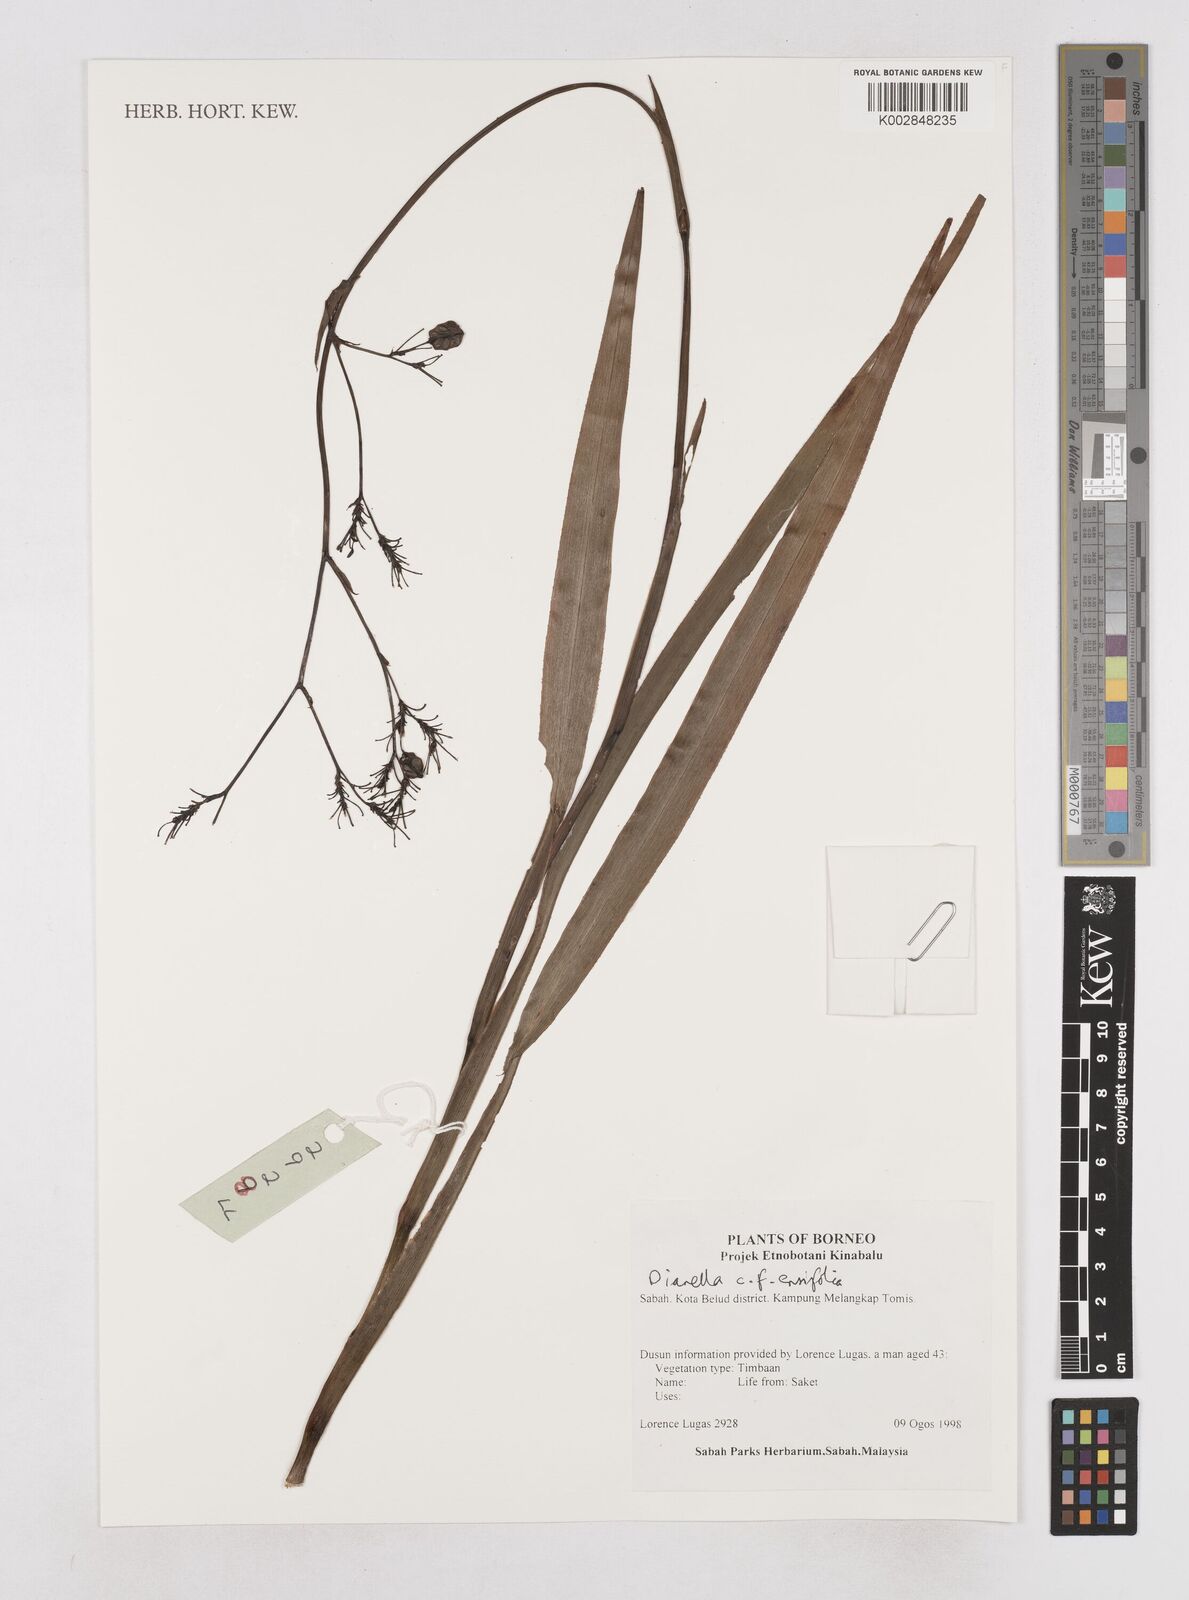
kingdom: Plantae
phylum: Tracheophyta
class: Liliopsida
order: Asparagales
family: Asphodelaceae
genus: Dianella
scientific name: Dianella ensifolia
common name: New zealand lilyplant
